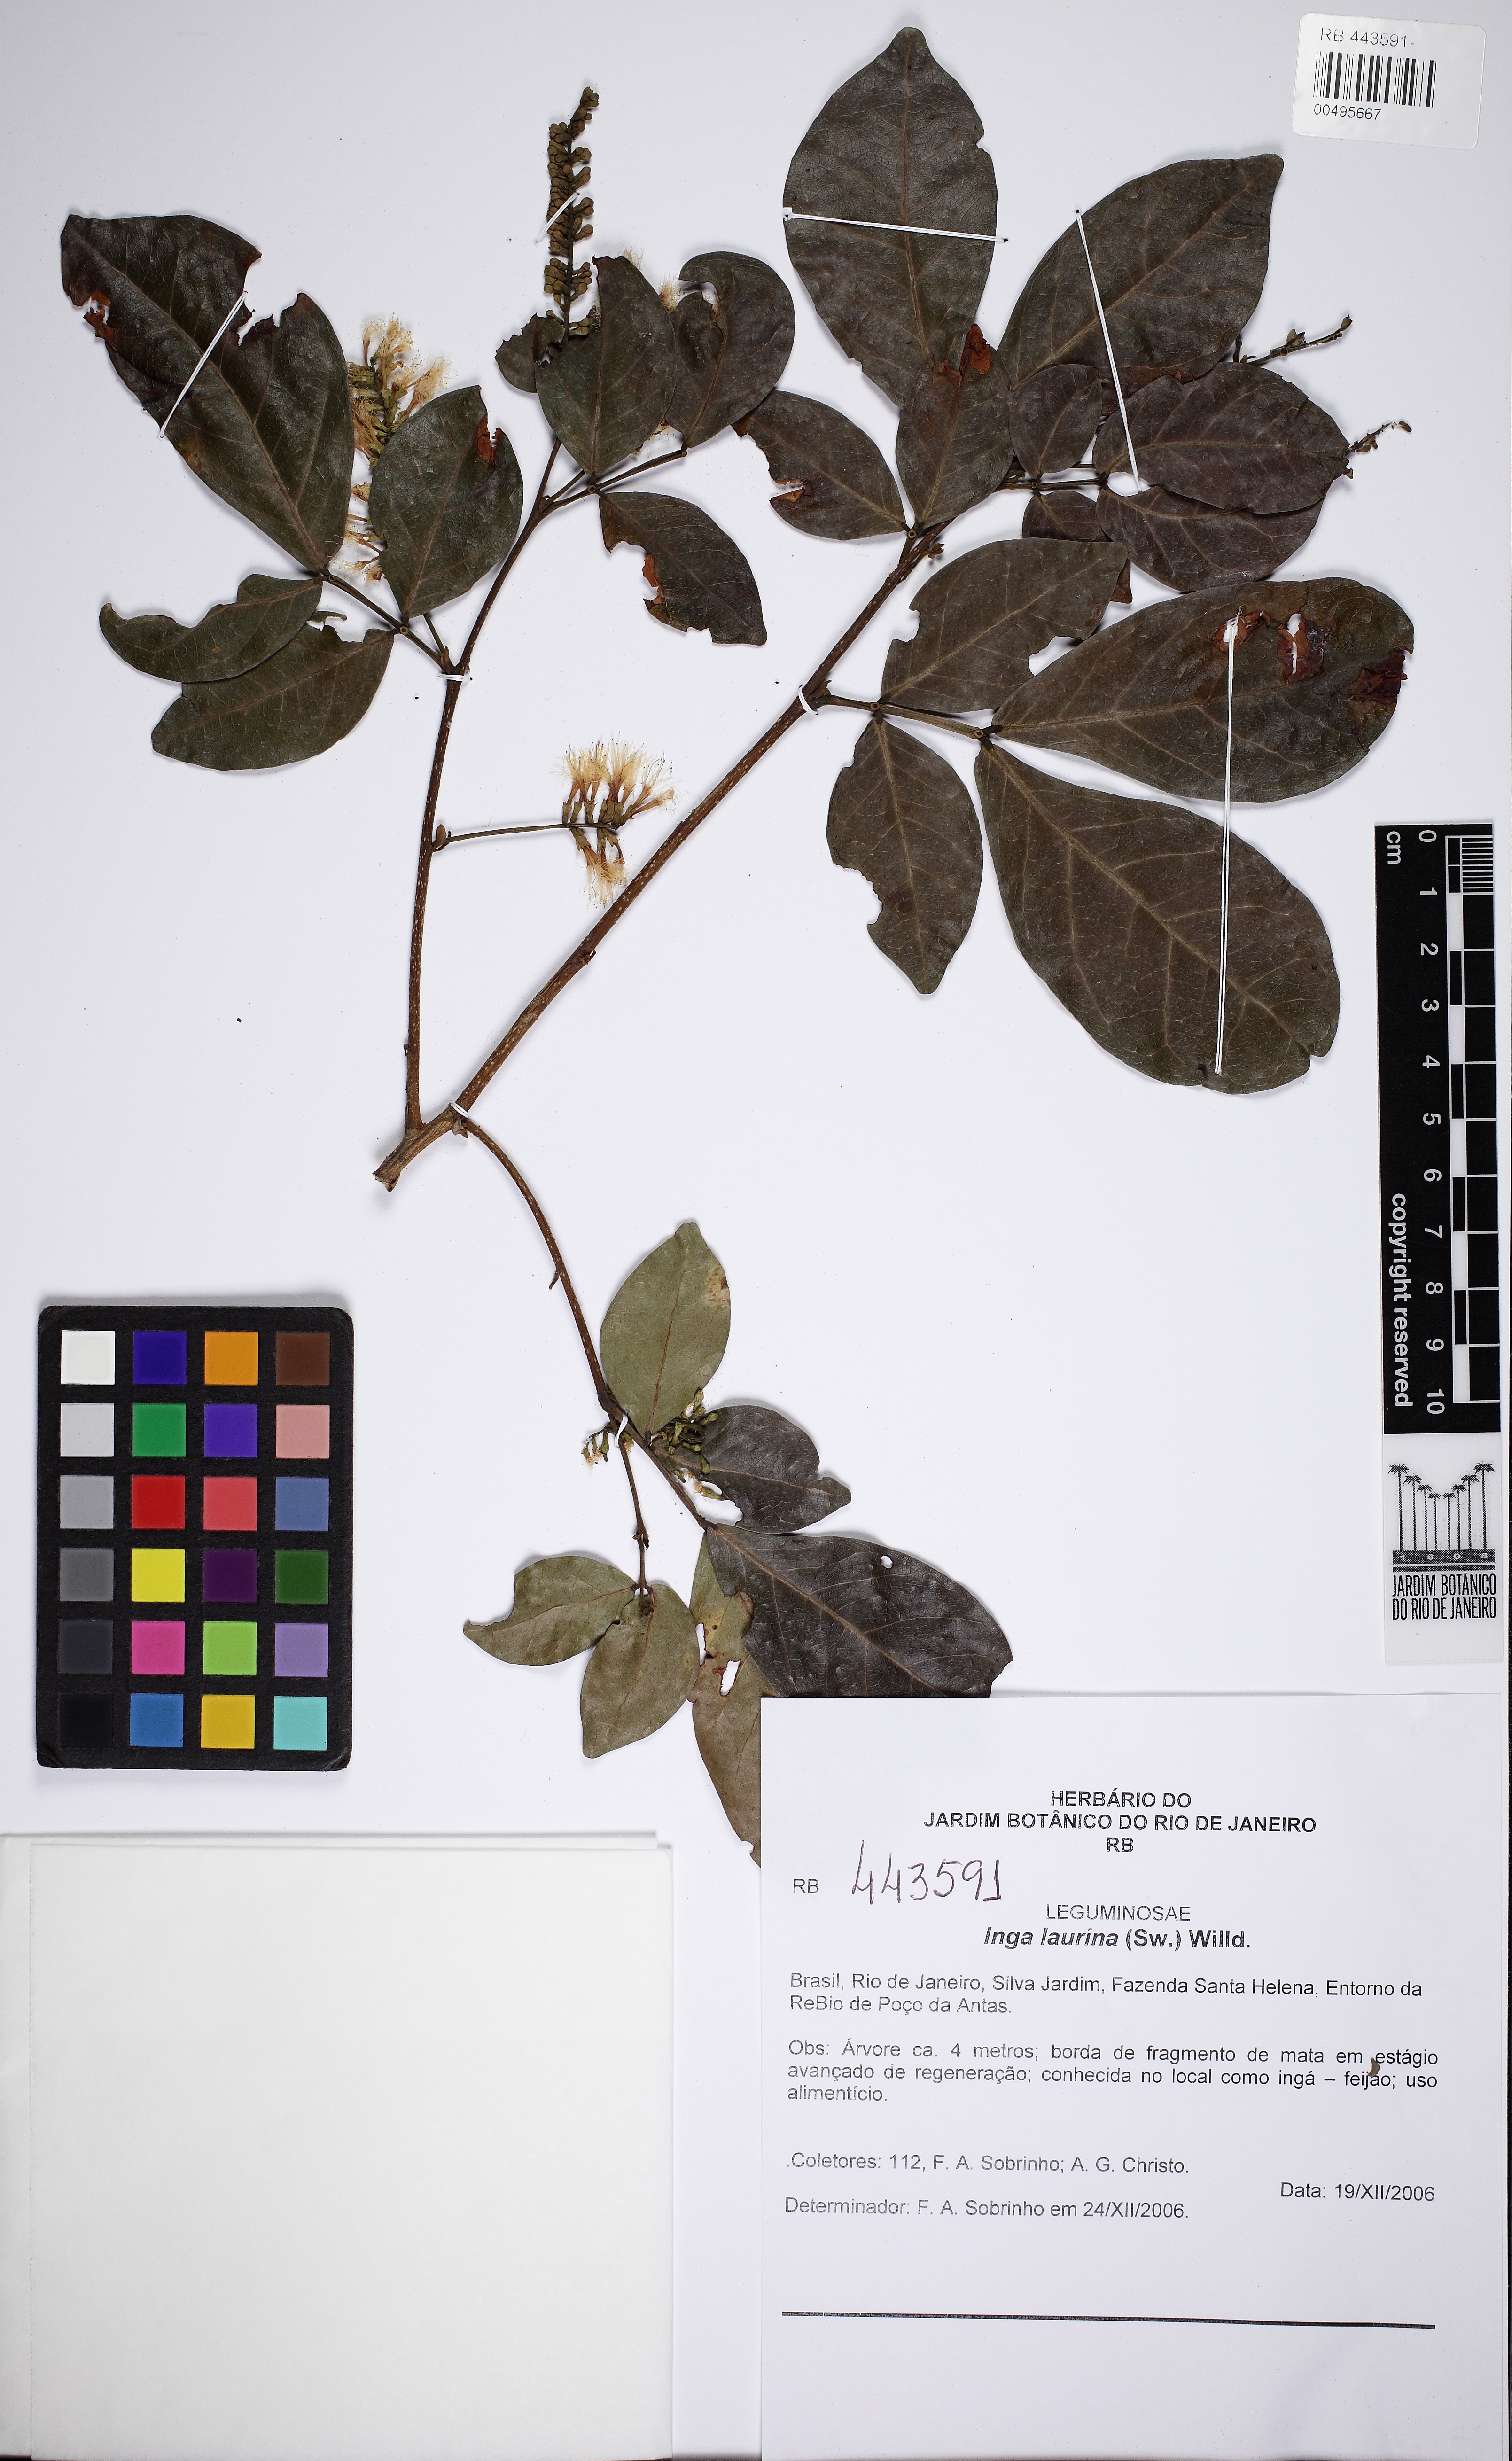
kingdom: Plantae
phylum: Tracheophyta
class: Magnoliopsida
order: Fabales
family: Fabaceae
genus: Inga
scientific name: Inga laurina
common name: Red wood
